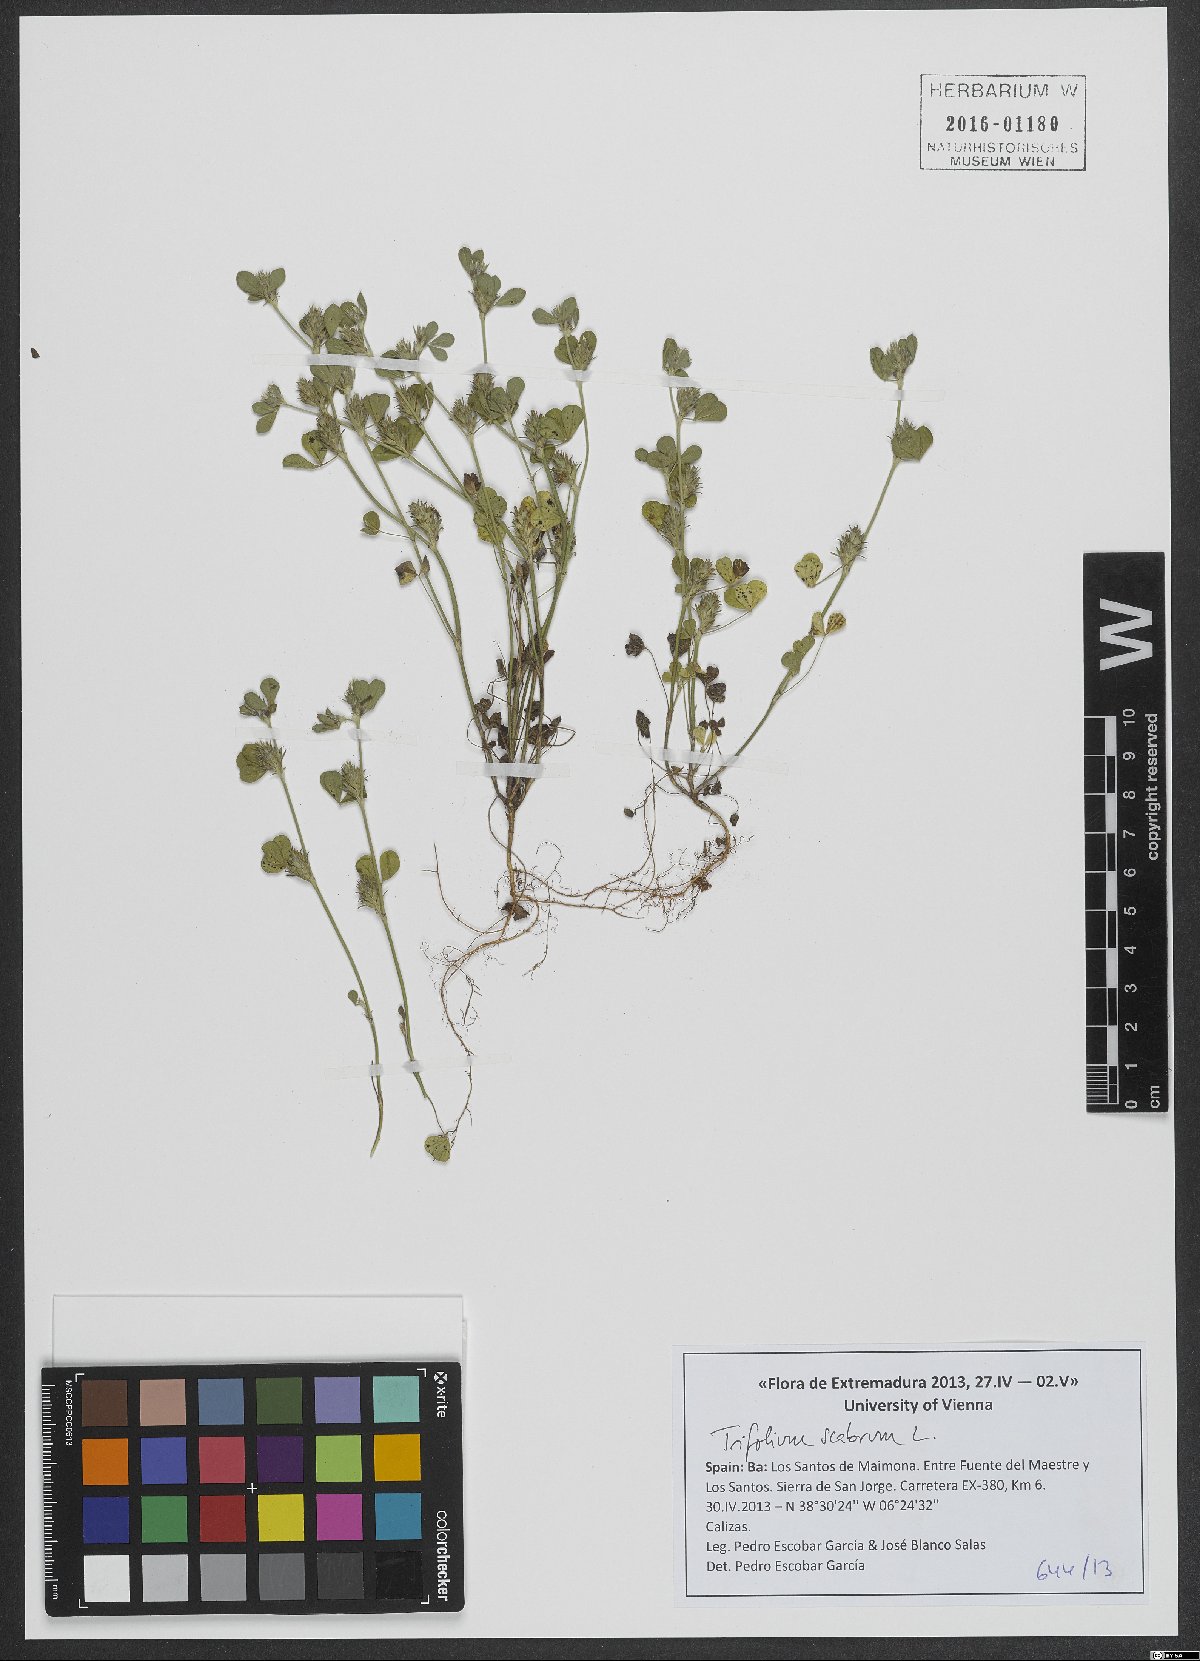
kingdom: Plantae
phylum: Tracheophyta
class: Magnoliopsida
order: Fabales
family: Fabaceae
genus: Trifolium
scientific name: Trifolium scabrum
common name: Rough clover
